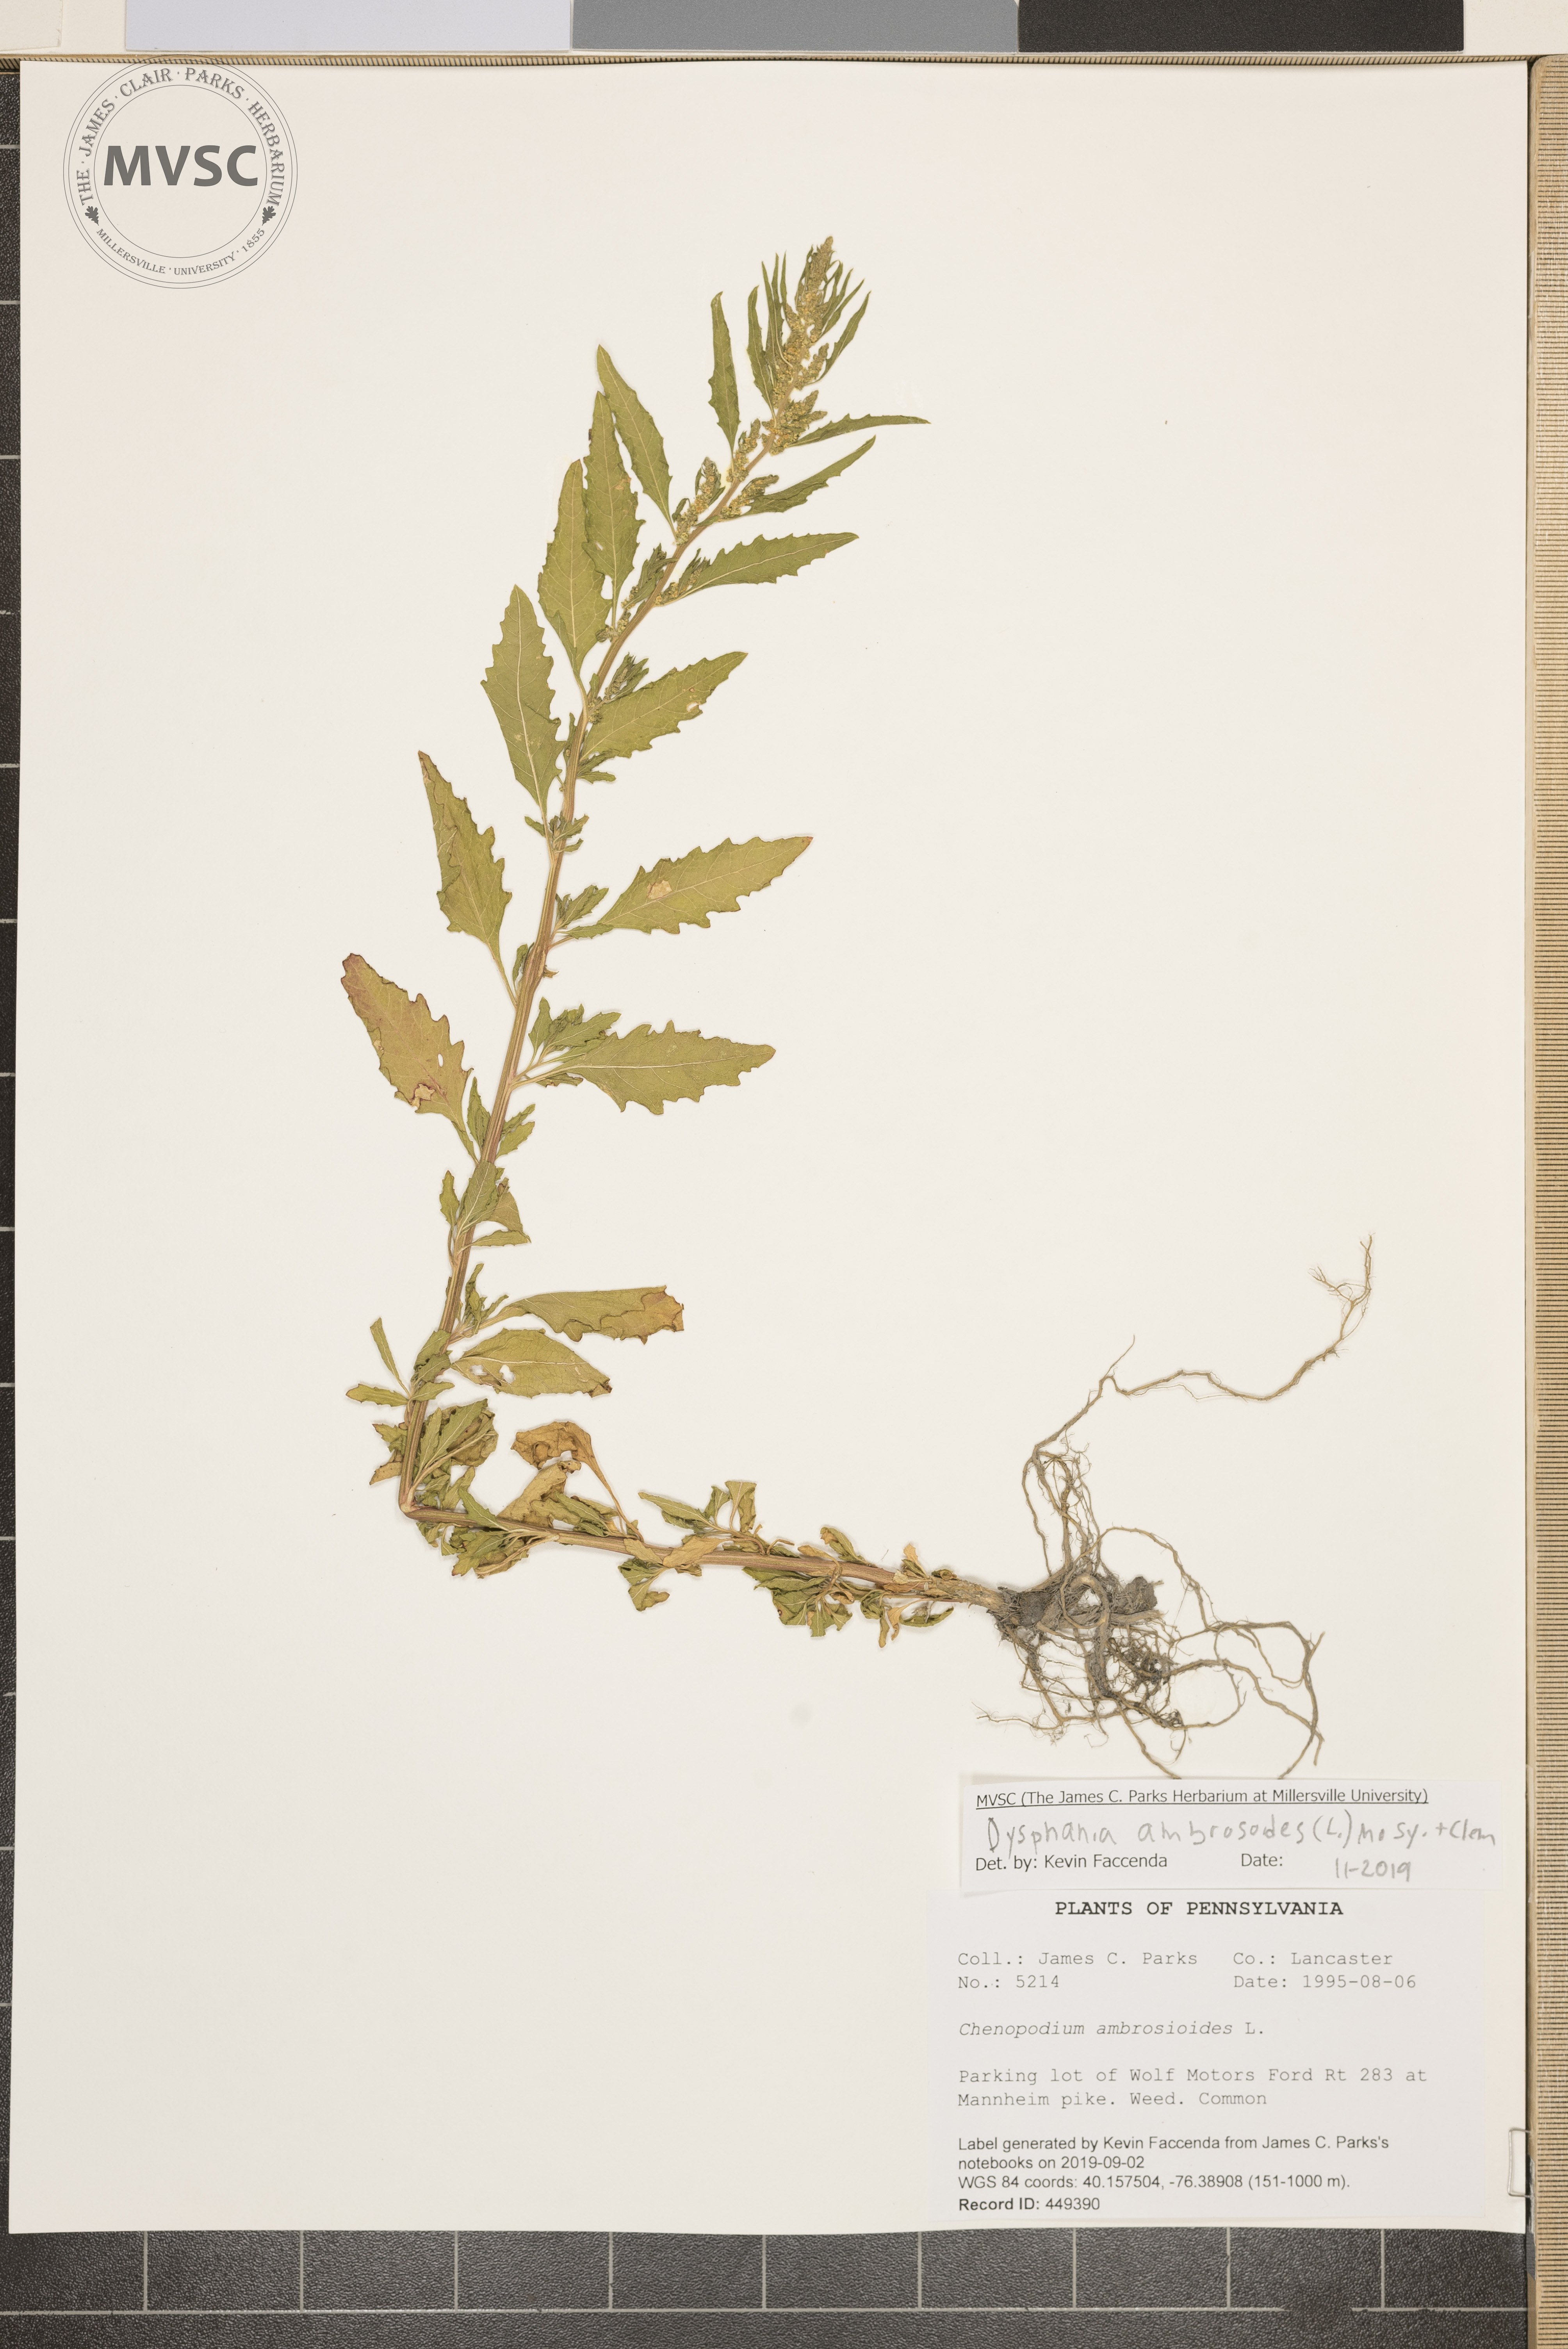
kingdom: Plantae
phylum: Tracheophyta
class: Magnoliopsida
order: Caryophyllales
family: Amaranthaceae
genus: Dysphania
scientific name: Dysphania ambrosioides
